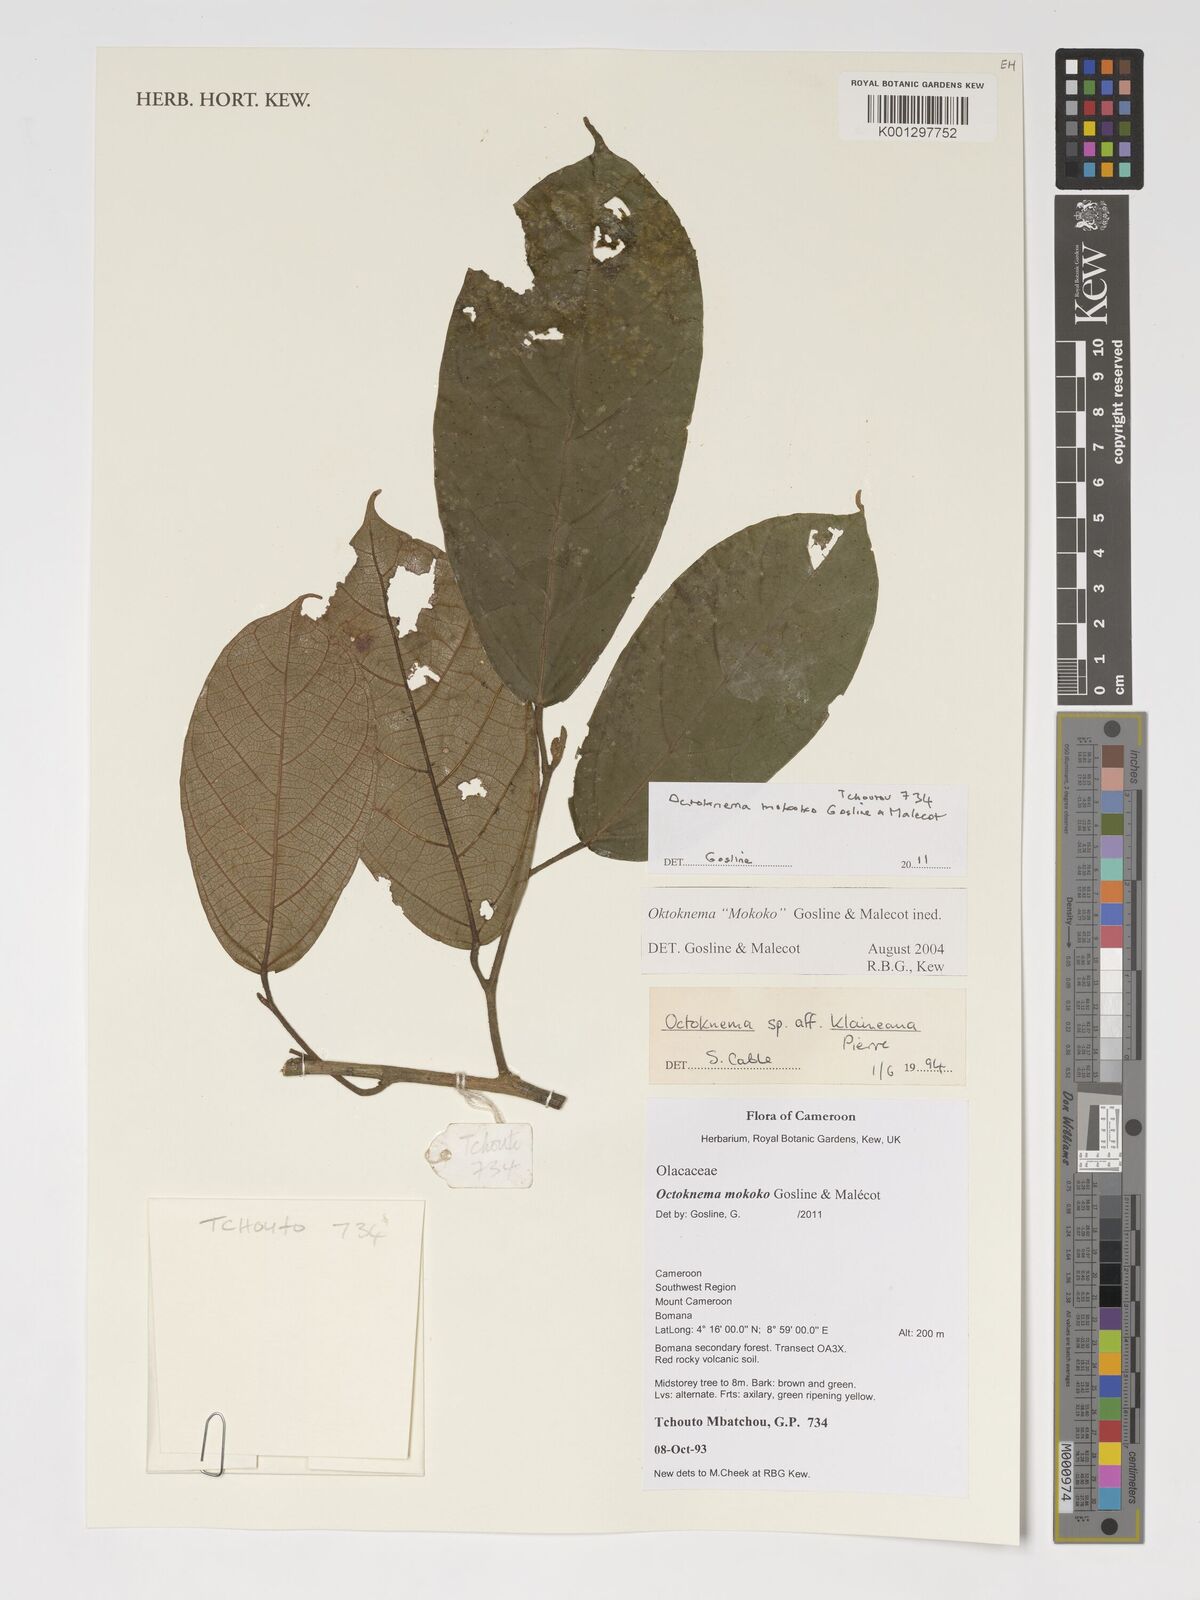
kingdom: Plantae
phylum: Tracheophyta
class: Magnoliopsida
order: Santalales
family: Octoknemaceae
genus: Octoknema
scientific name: Octoknema mokoko
